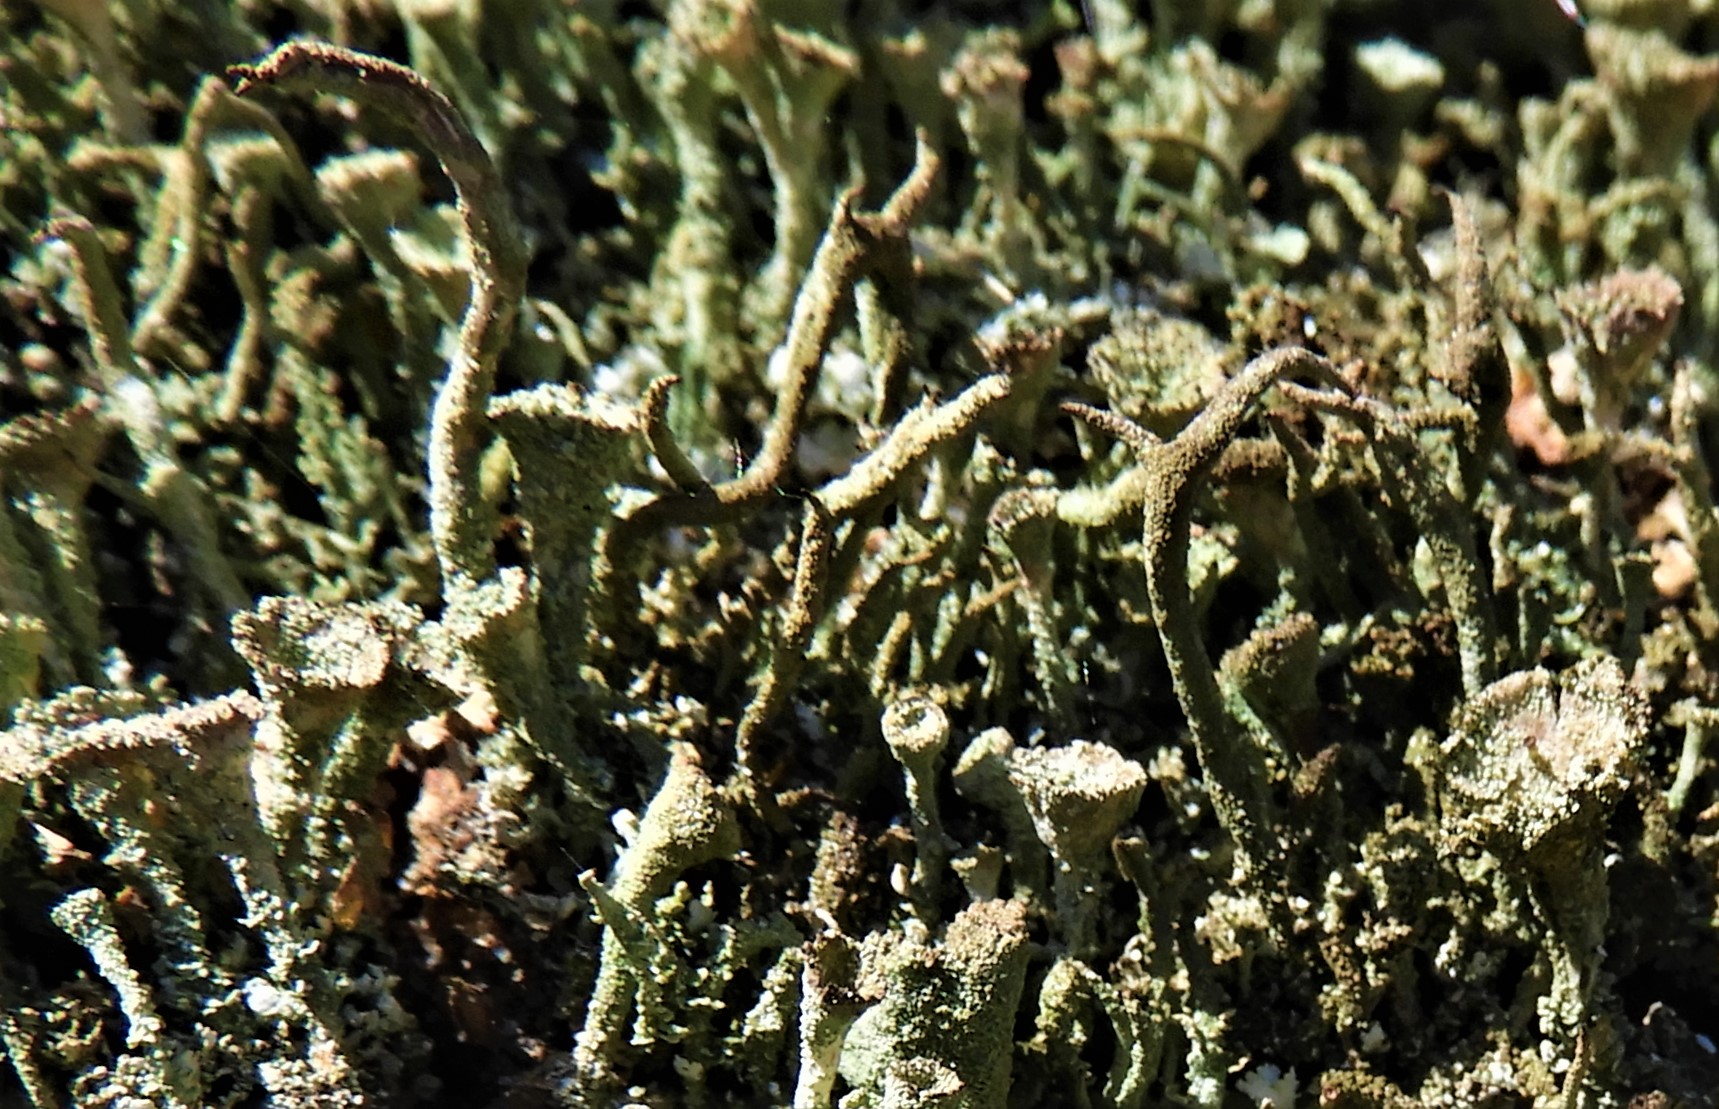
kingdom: Fungi
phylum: Ascomycota
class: Lecanoromycetes
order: Lecanorales
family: Cladoniaceae
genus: Cladonia
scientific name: Cladonia
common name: brungrøn bægerlav
